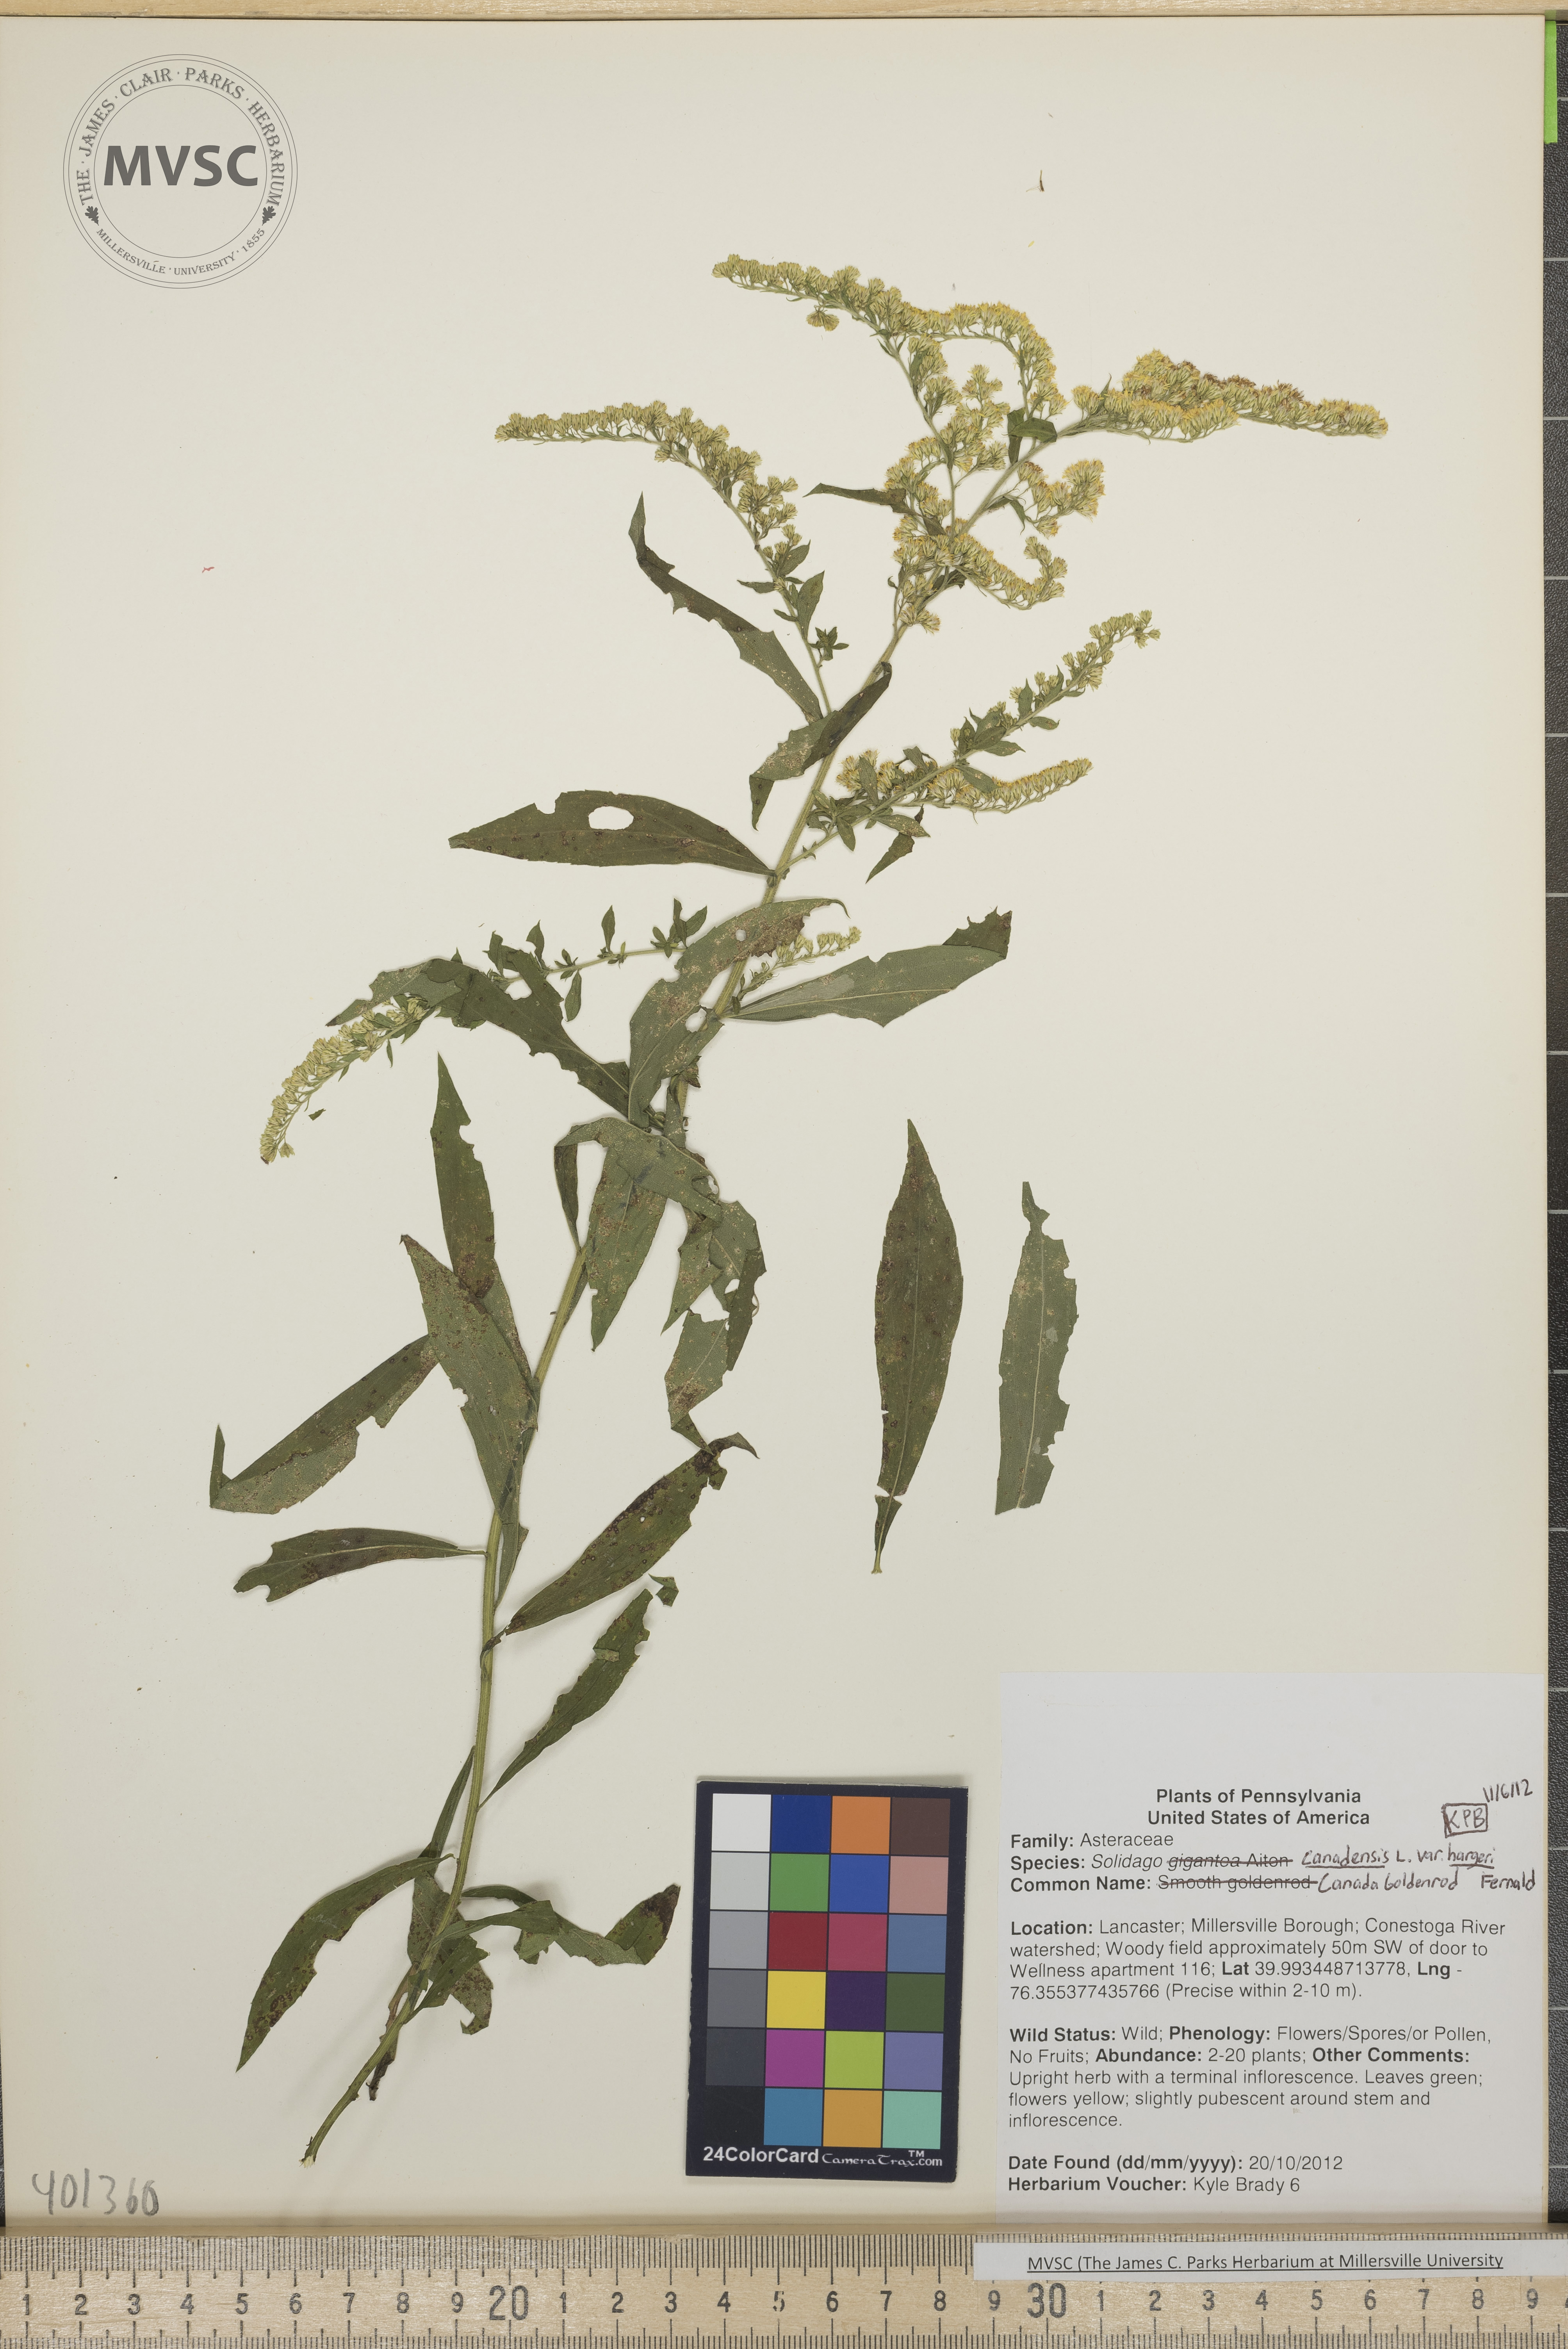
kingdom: Plantae
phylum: Tracheophyta
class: Magnoliopsida
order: Asterales
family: Asteraceae
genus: Solidago
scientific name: Solidago altissima
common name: Late goldenrod
